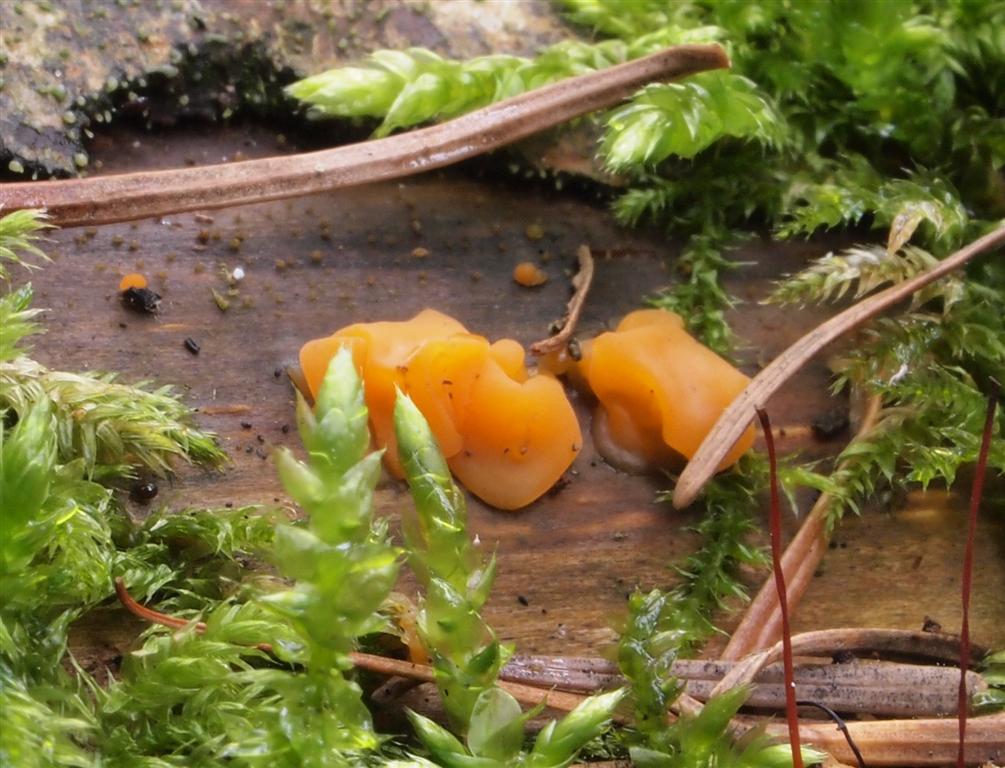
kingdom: Fungi
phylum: Basidiomycota
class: Dacrymycetes
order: Dacrymycetales
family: Dacrymycetaceae
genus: Dacrymyces
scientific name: Dacrymyces lacrymalis
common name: rynket tåresvamp
